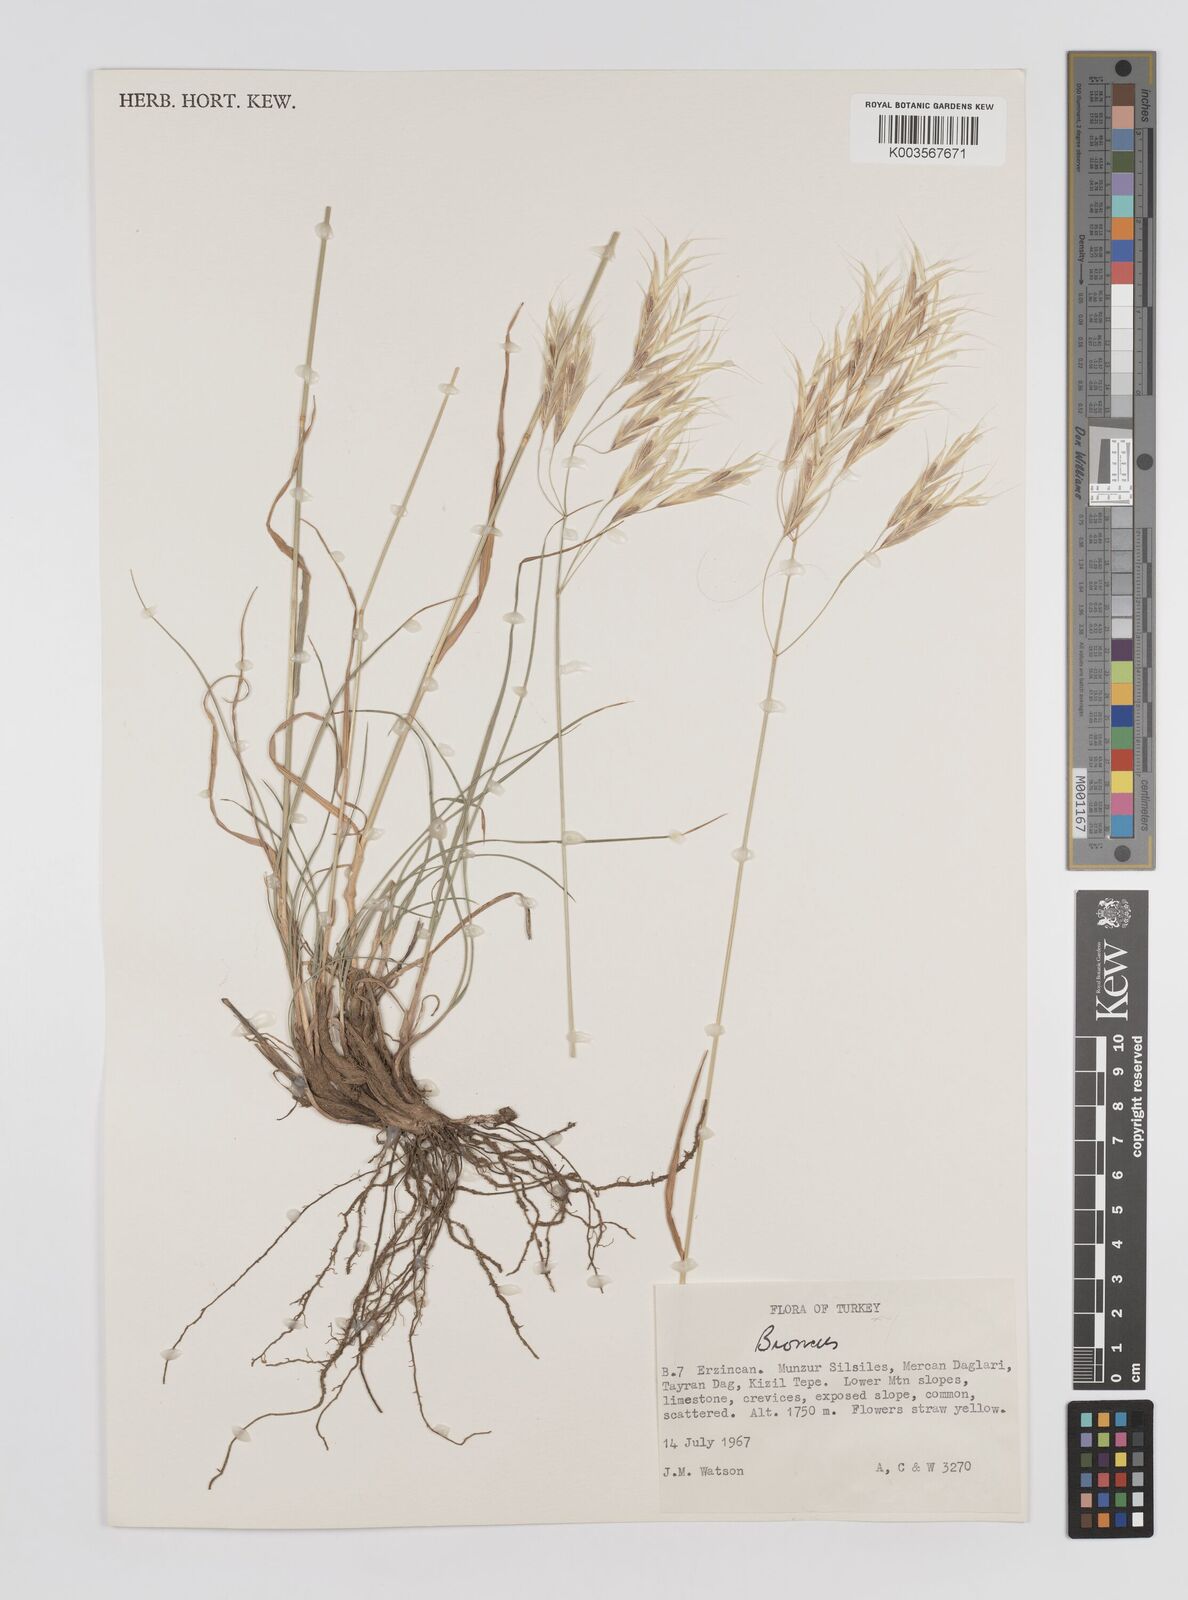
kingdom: Plantae
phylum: Tracheophyta
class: Liliopsida
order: Poales
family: Poaceae
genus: Bromus
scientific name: Bromus
